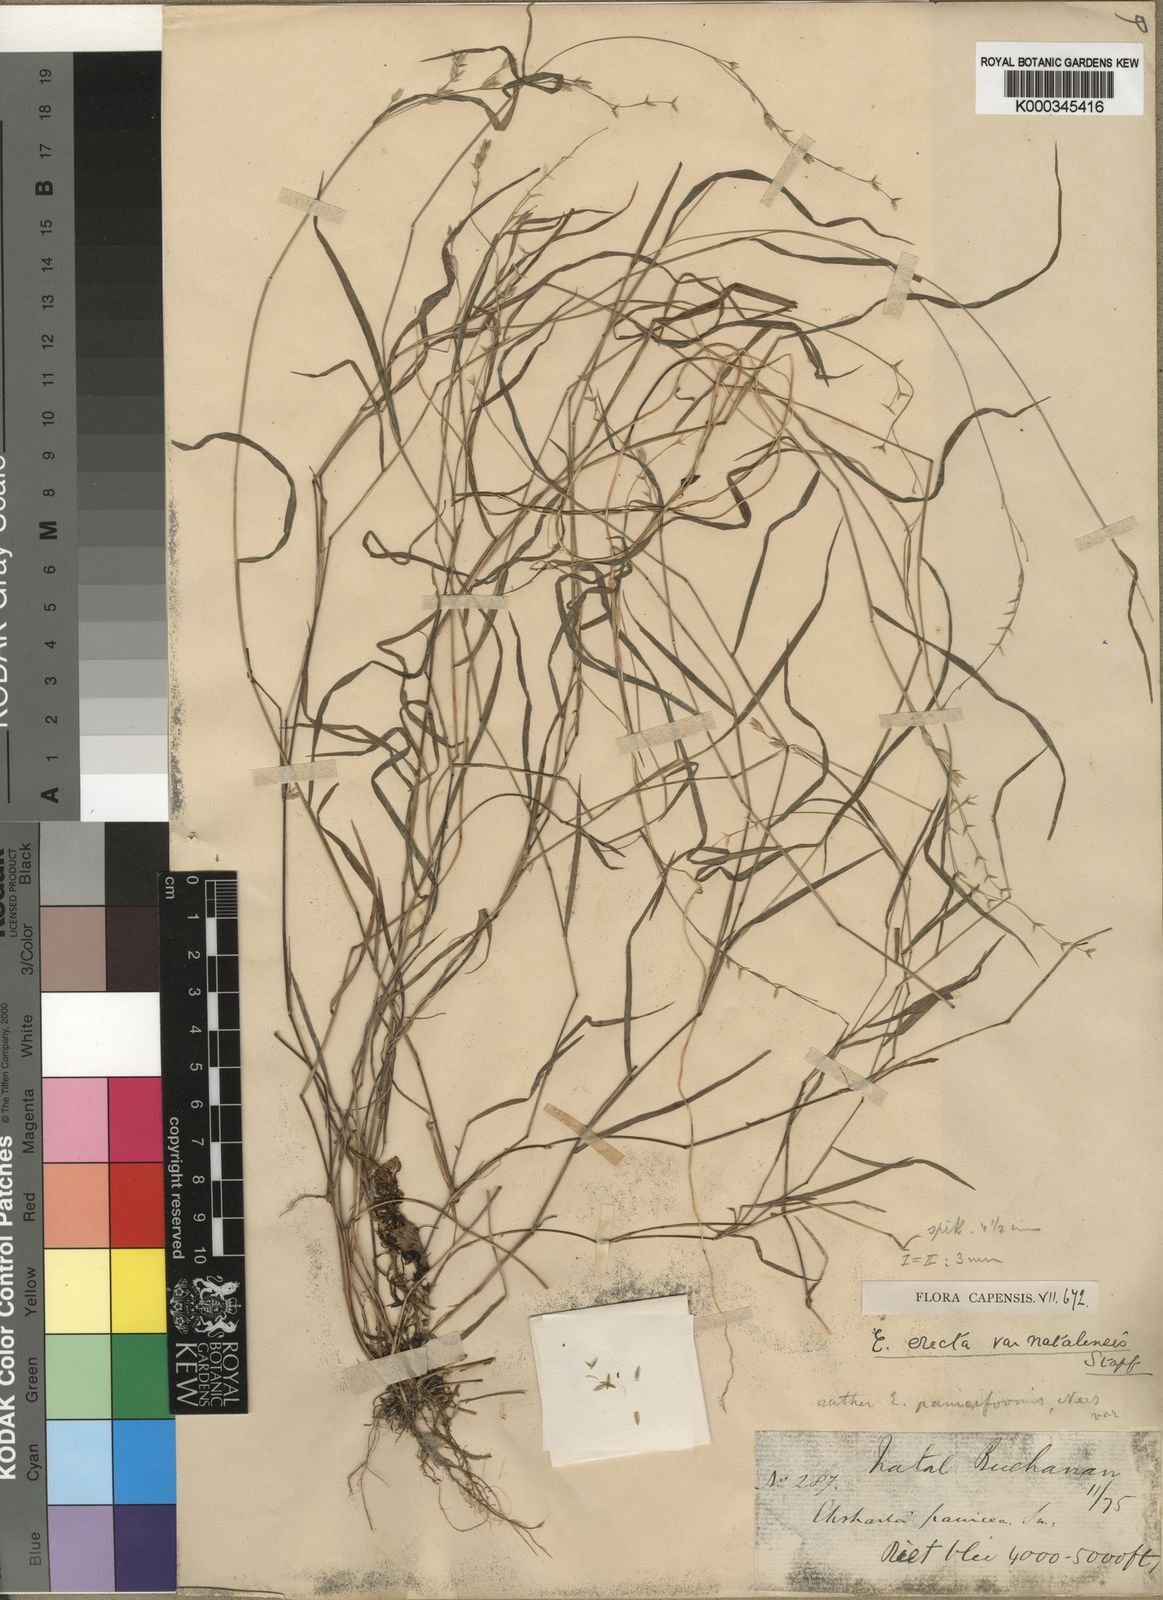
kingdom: Plantae
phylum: Tracheophyta
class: Liliopsida
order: Poales
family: Poaceae
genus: Ehrharta
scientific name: Ehrharta erecta
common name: Panic veldtgrass
